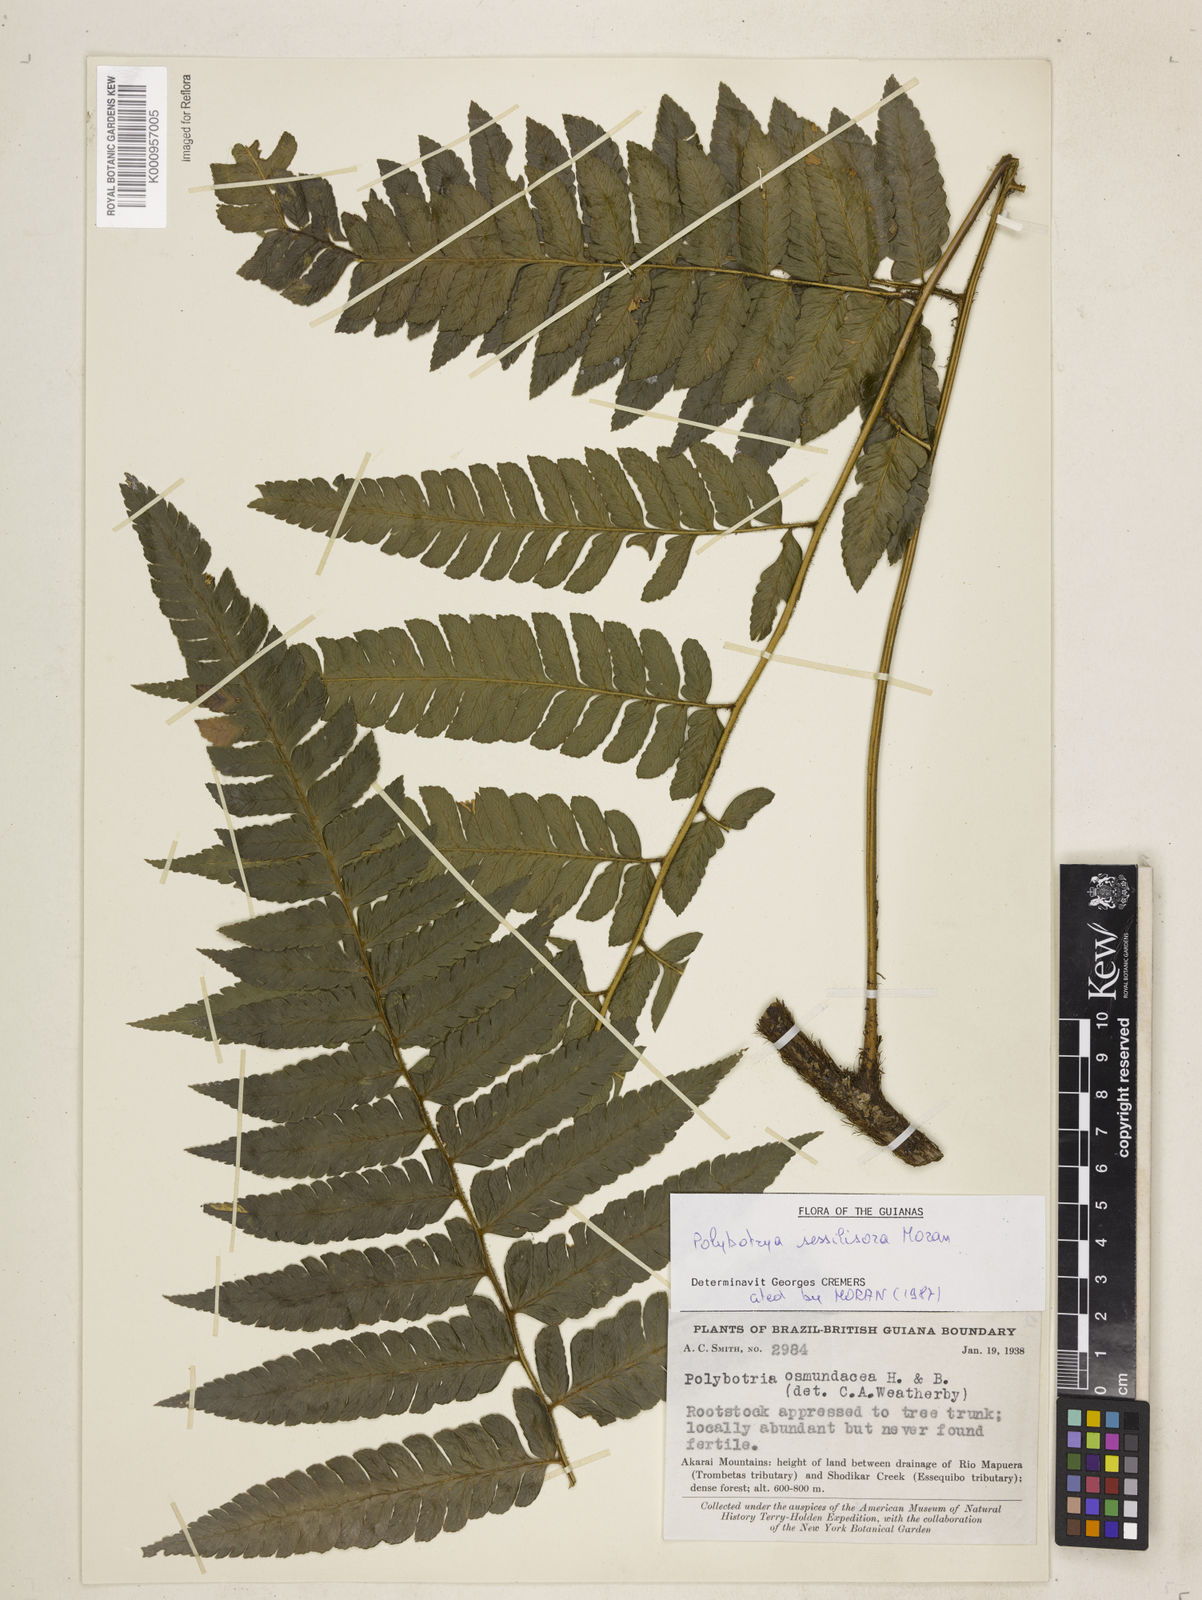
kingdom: Plantae
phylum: Tracheophyta
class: Polypodiopsida
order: Polypodiales
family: Dryopteridaceae
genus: Polybotrya
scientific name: Polybotrya sessilisora
